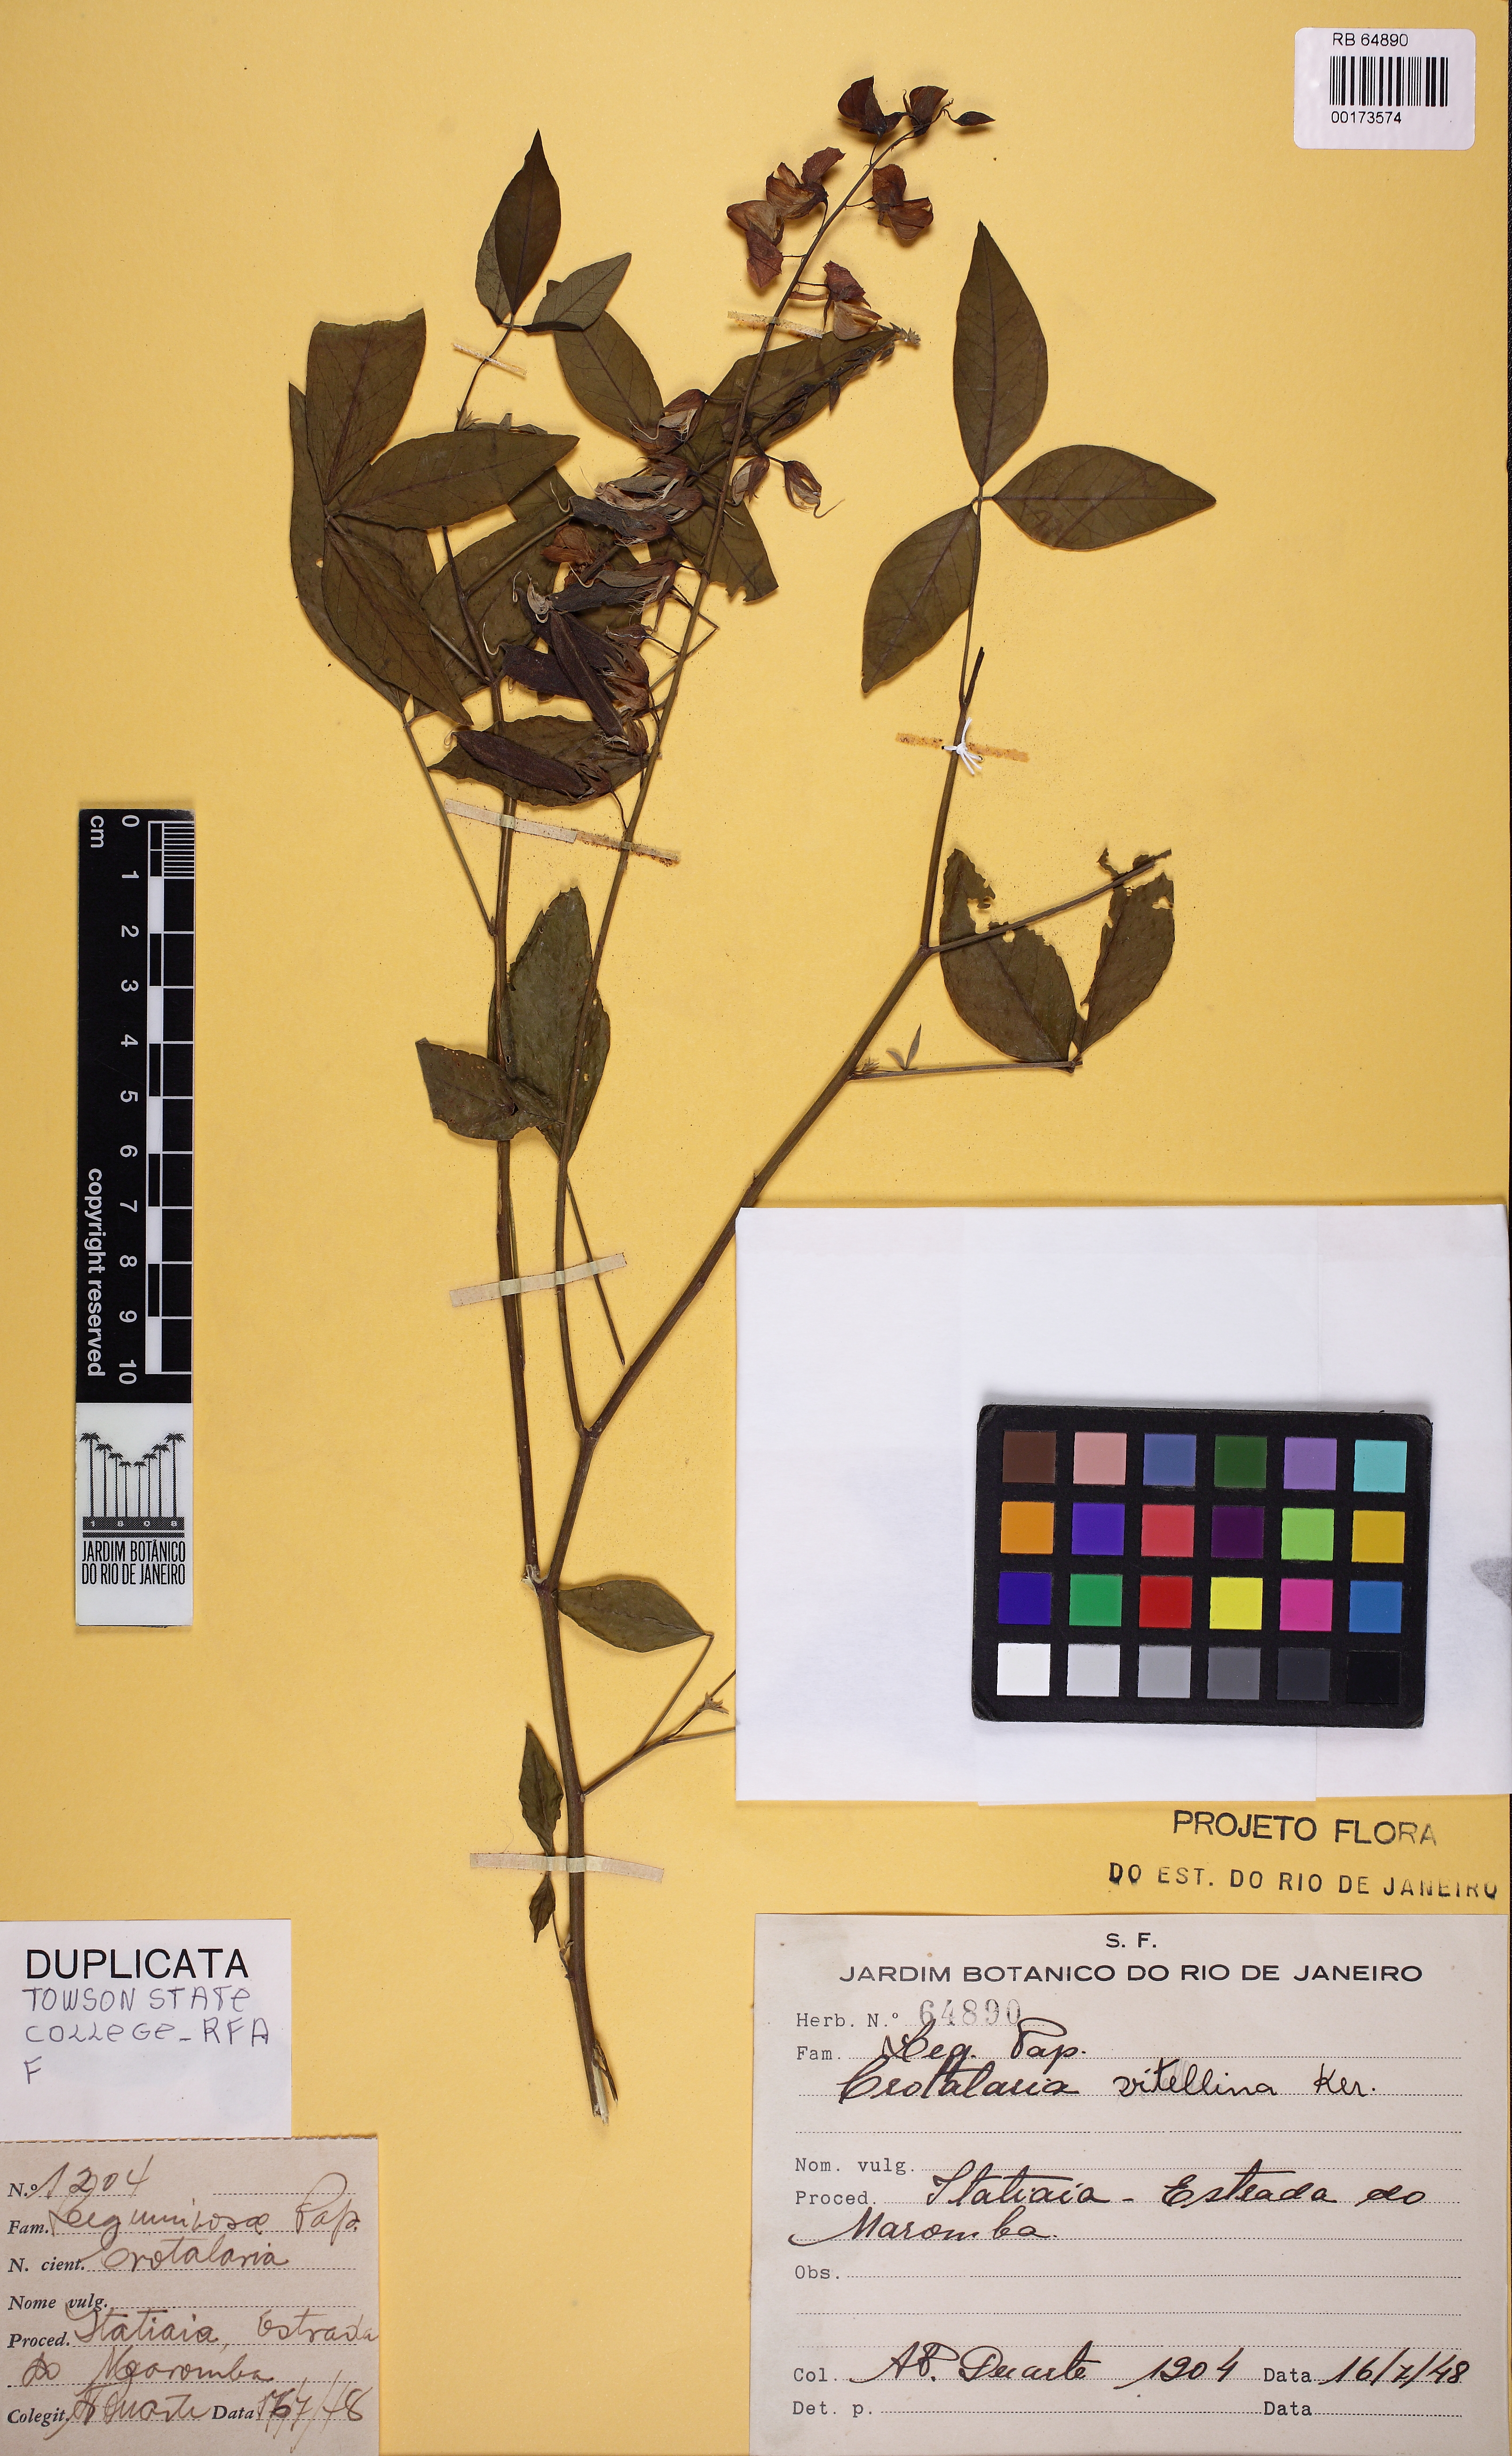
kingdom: Plantae
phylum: Tracheophyta
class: Magnoliopsida
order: Fabales
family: Fabaceae
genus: Crotalaria
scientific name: Crotalaria vitellina
